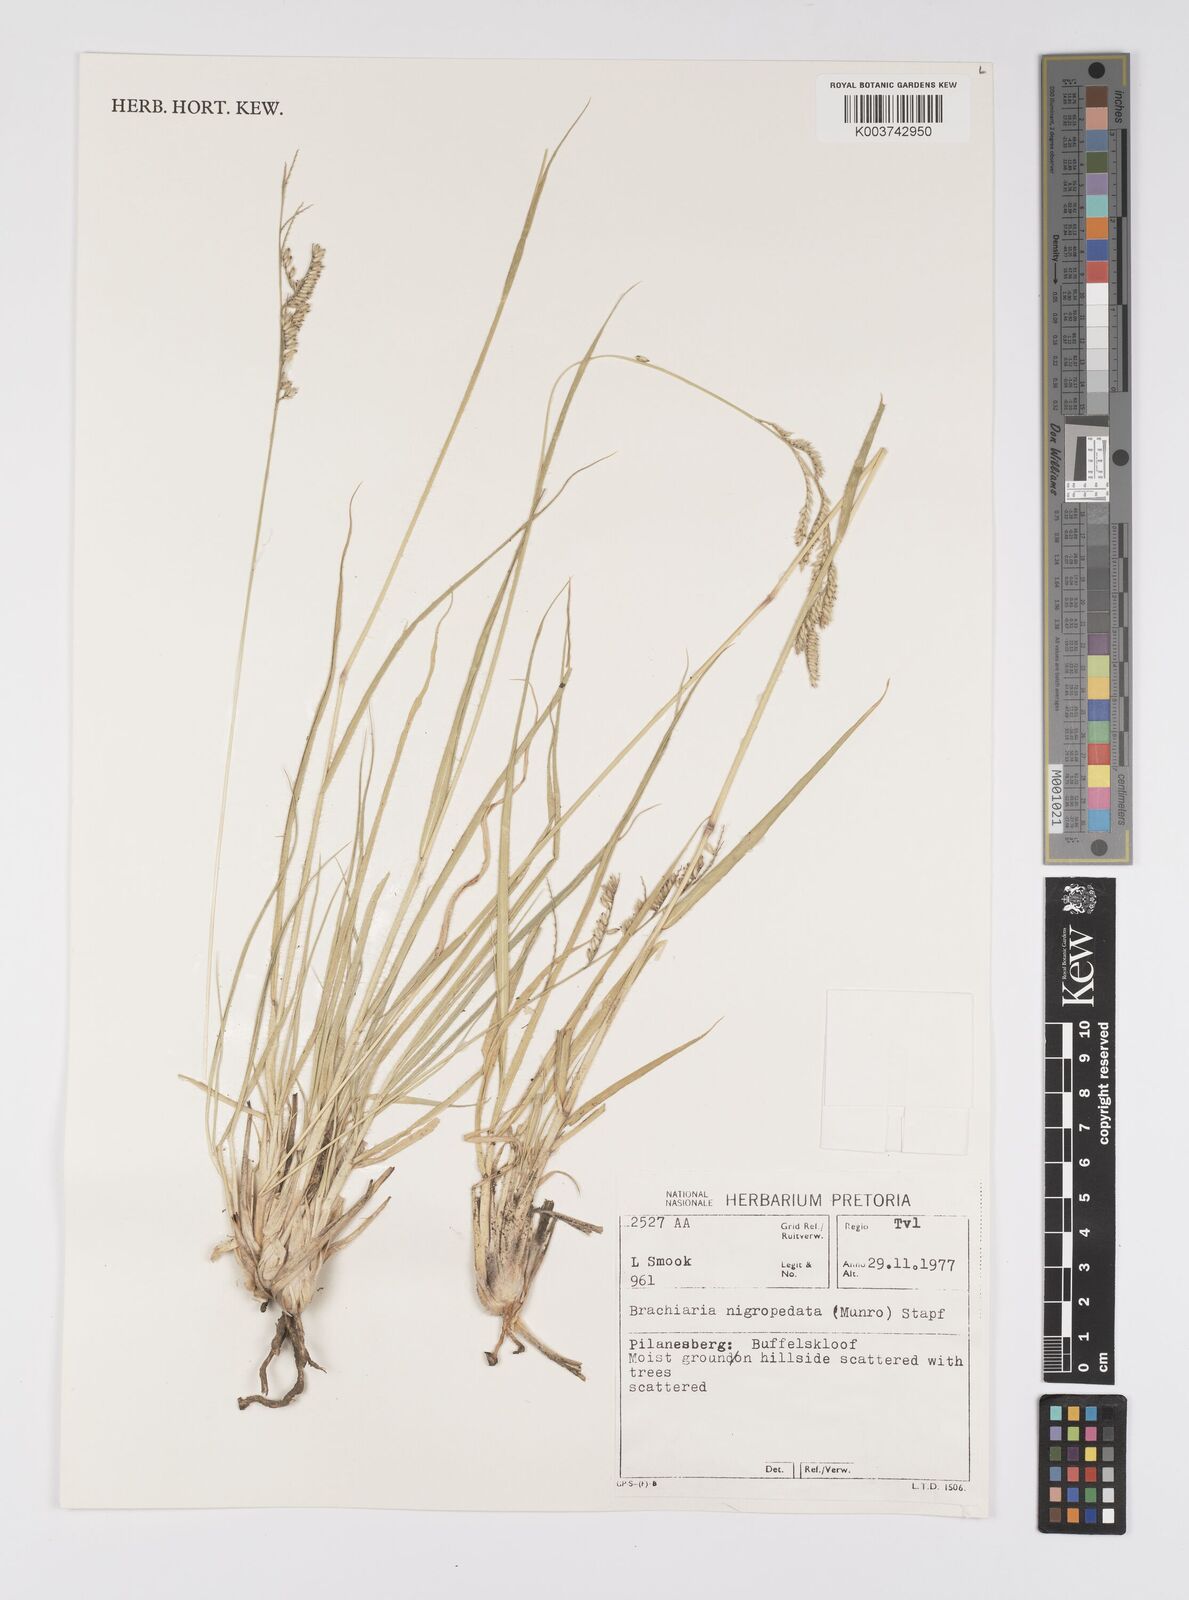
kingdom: Plantae
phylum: Tracheophyta
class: Liliopsida
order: Poales
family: Poaceae
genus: Urochloa
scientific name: Urochloa nigropedata
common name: Spotted signal grass
